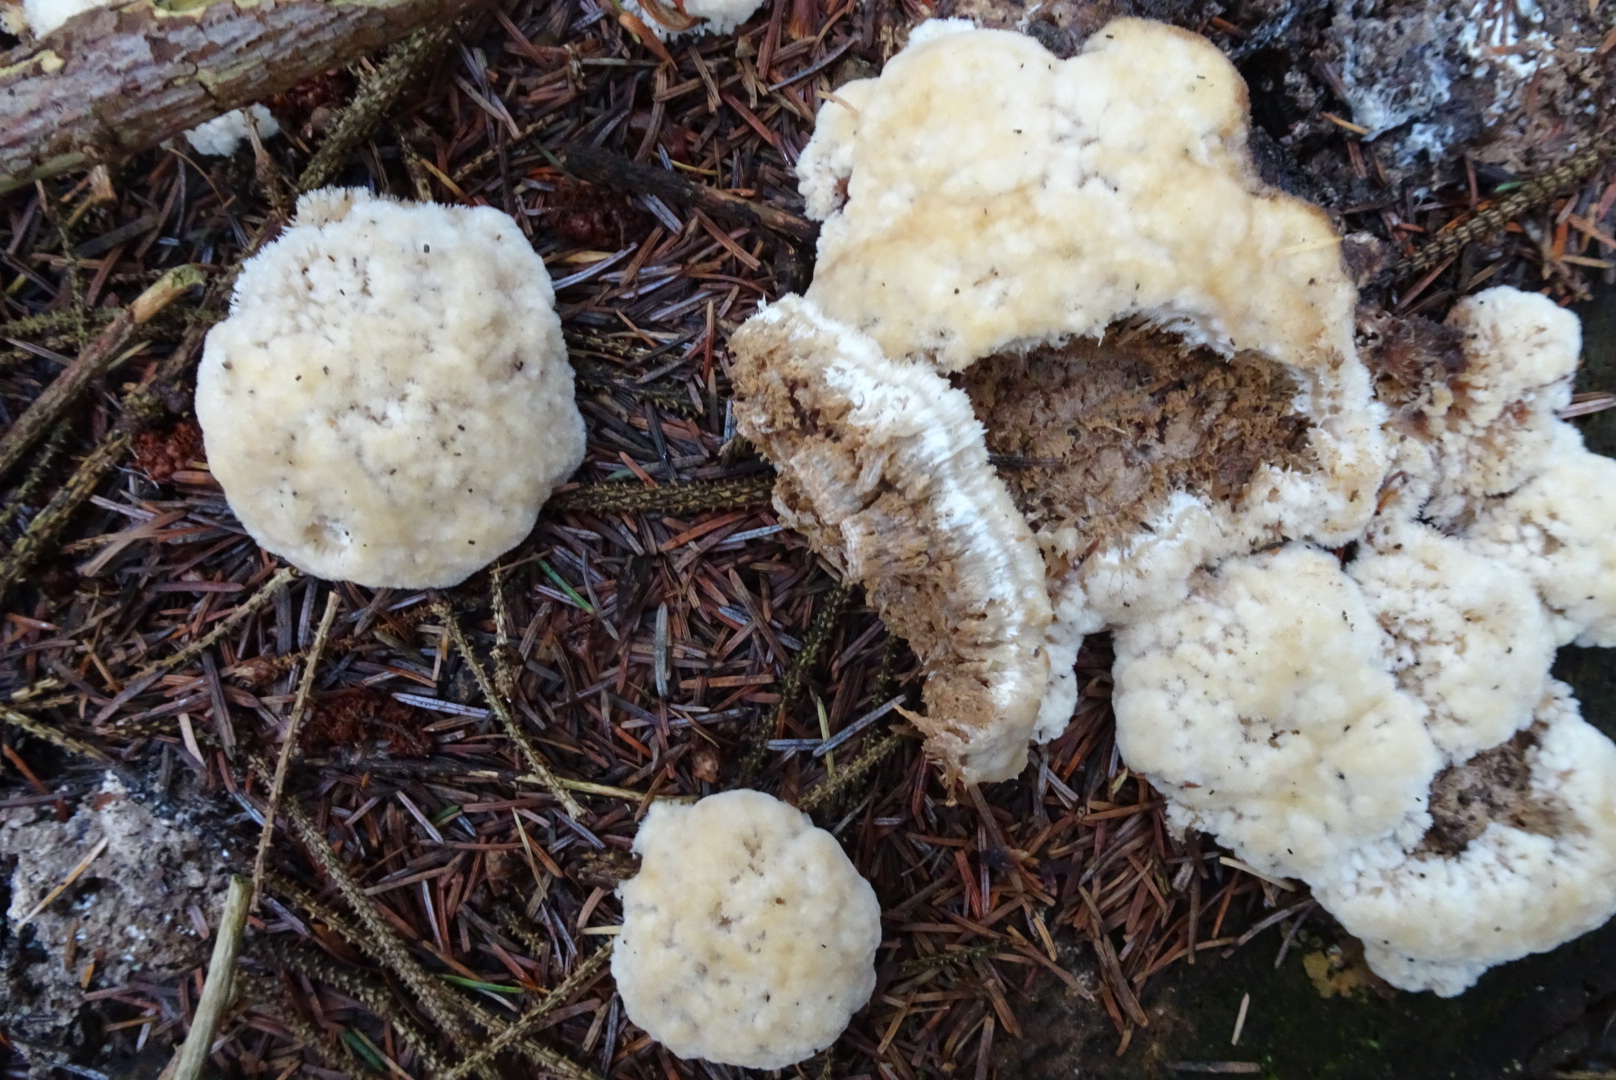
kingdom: Fungi
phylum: Basidiomycota
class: Agaricomycetes
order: Polyporales
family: Dacryobolaceae
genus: Postia
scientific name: Postia ptychogaster
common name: støvende kødporesvamp
